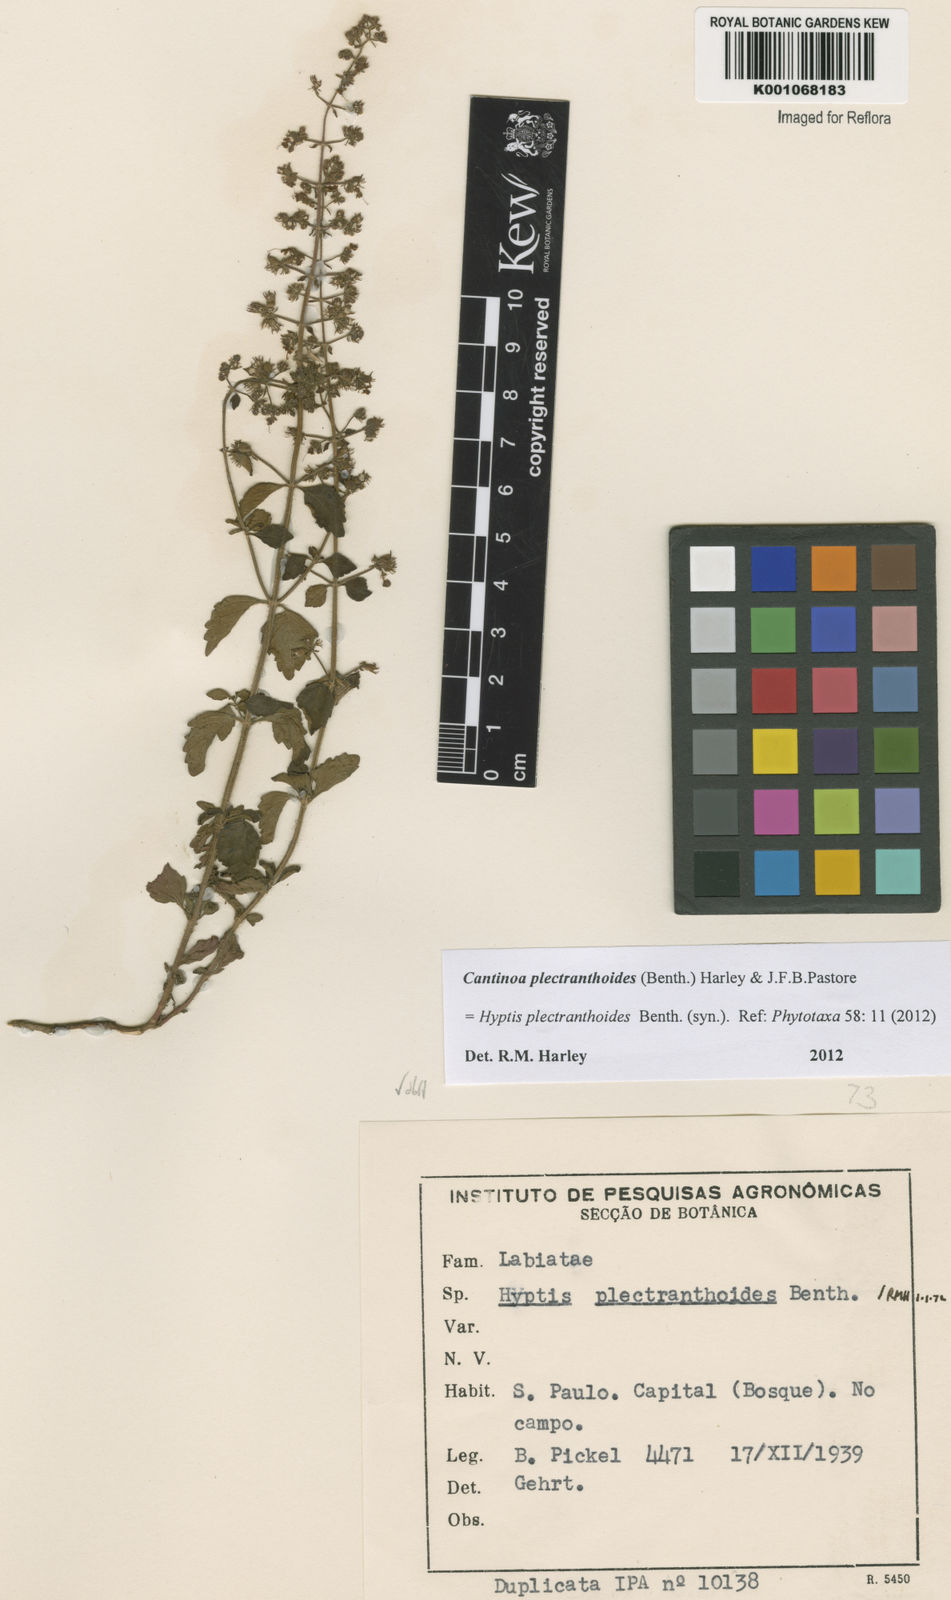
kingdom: Plantae
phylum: Tracheophyta
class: Magnoliopsida
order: Lamiales
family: Lamiaceae
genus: Cantinoa
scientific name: Cantinoa plectranthoides
